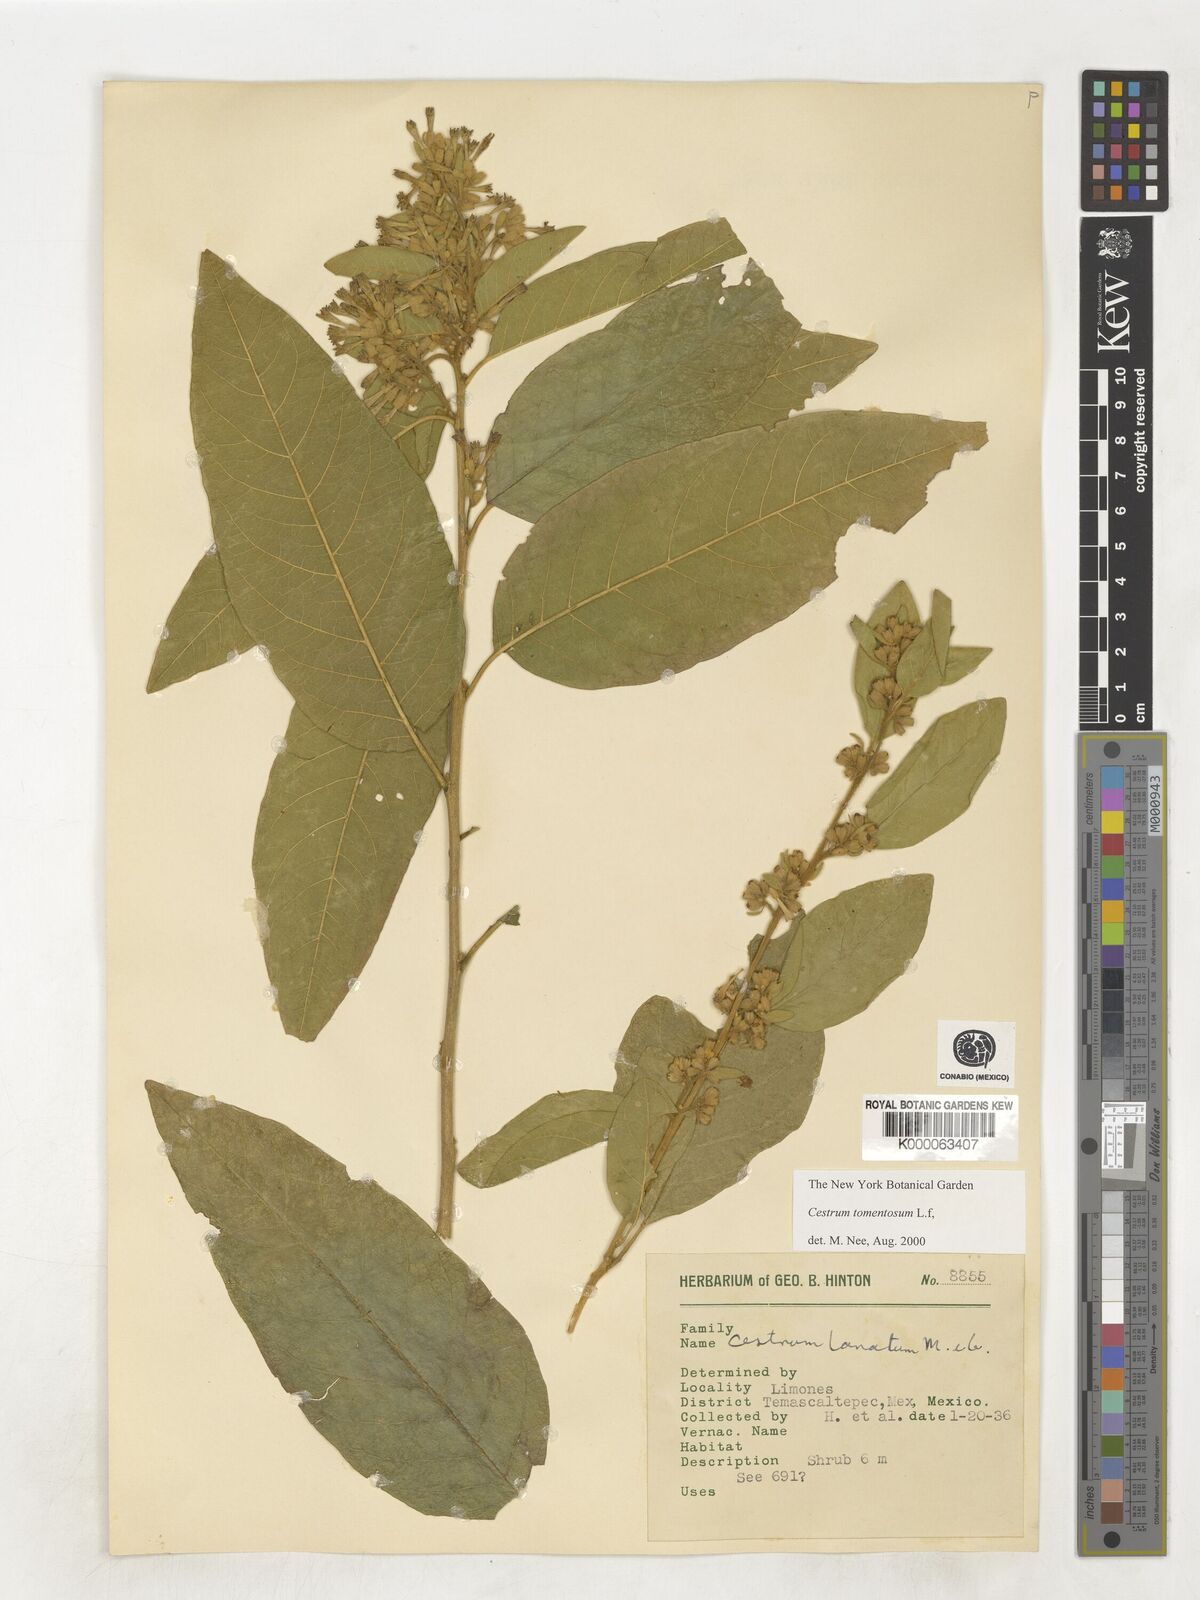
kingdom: Plantae
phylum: Tracheophyta
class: Magnoliopsida
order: Solanales
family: Solanaceae
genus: Cestrum
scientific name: Cestrum tomentosum
